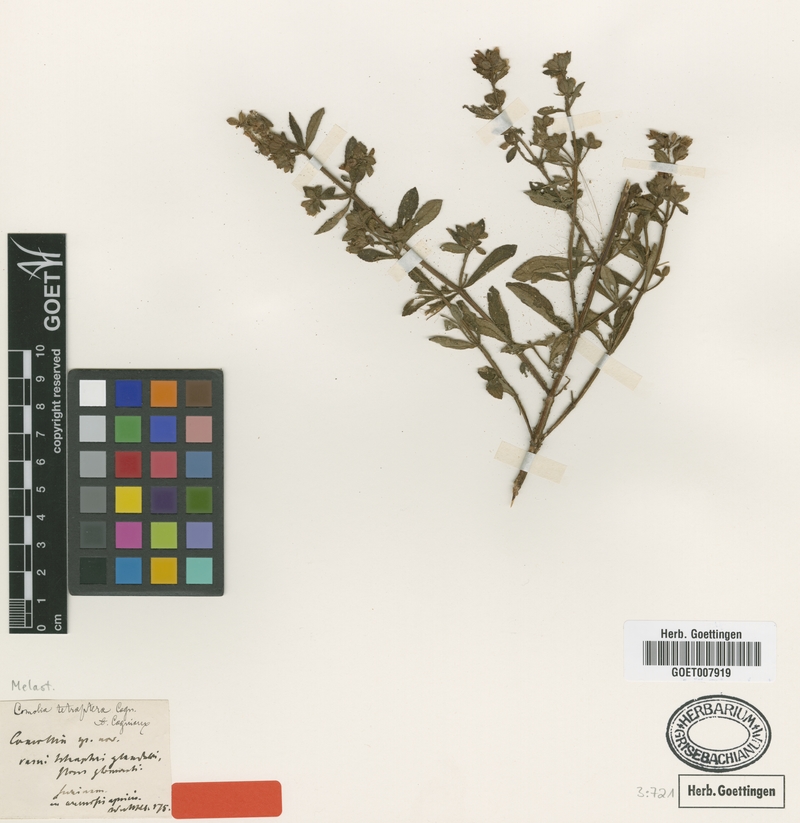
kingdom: Plantae
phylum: Tracheophyta
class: Magnoliopsida
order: Myrtales
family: Melastomataceae
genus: Rostranthera
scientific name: Rostranthera tetraptera
